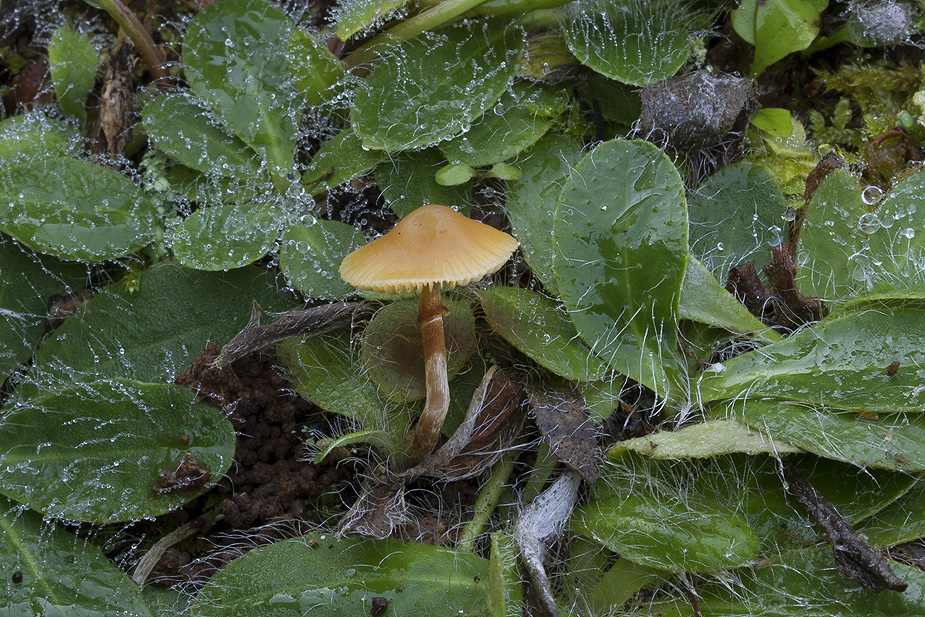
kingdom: Fungi
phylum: Basidiomycota
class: Agaricomycetes
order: Agaricales
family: Hymenogastraceae
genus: Galerina
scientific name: Galerina marginata
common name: randbæltet hjelmhat
